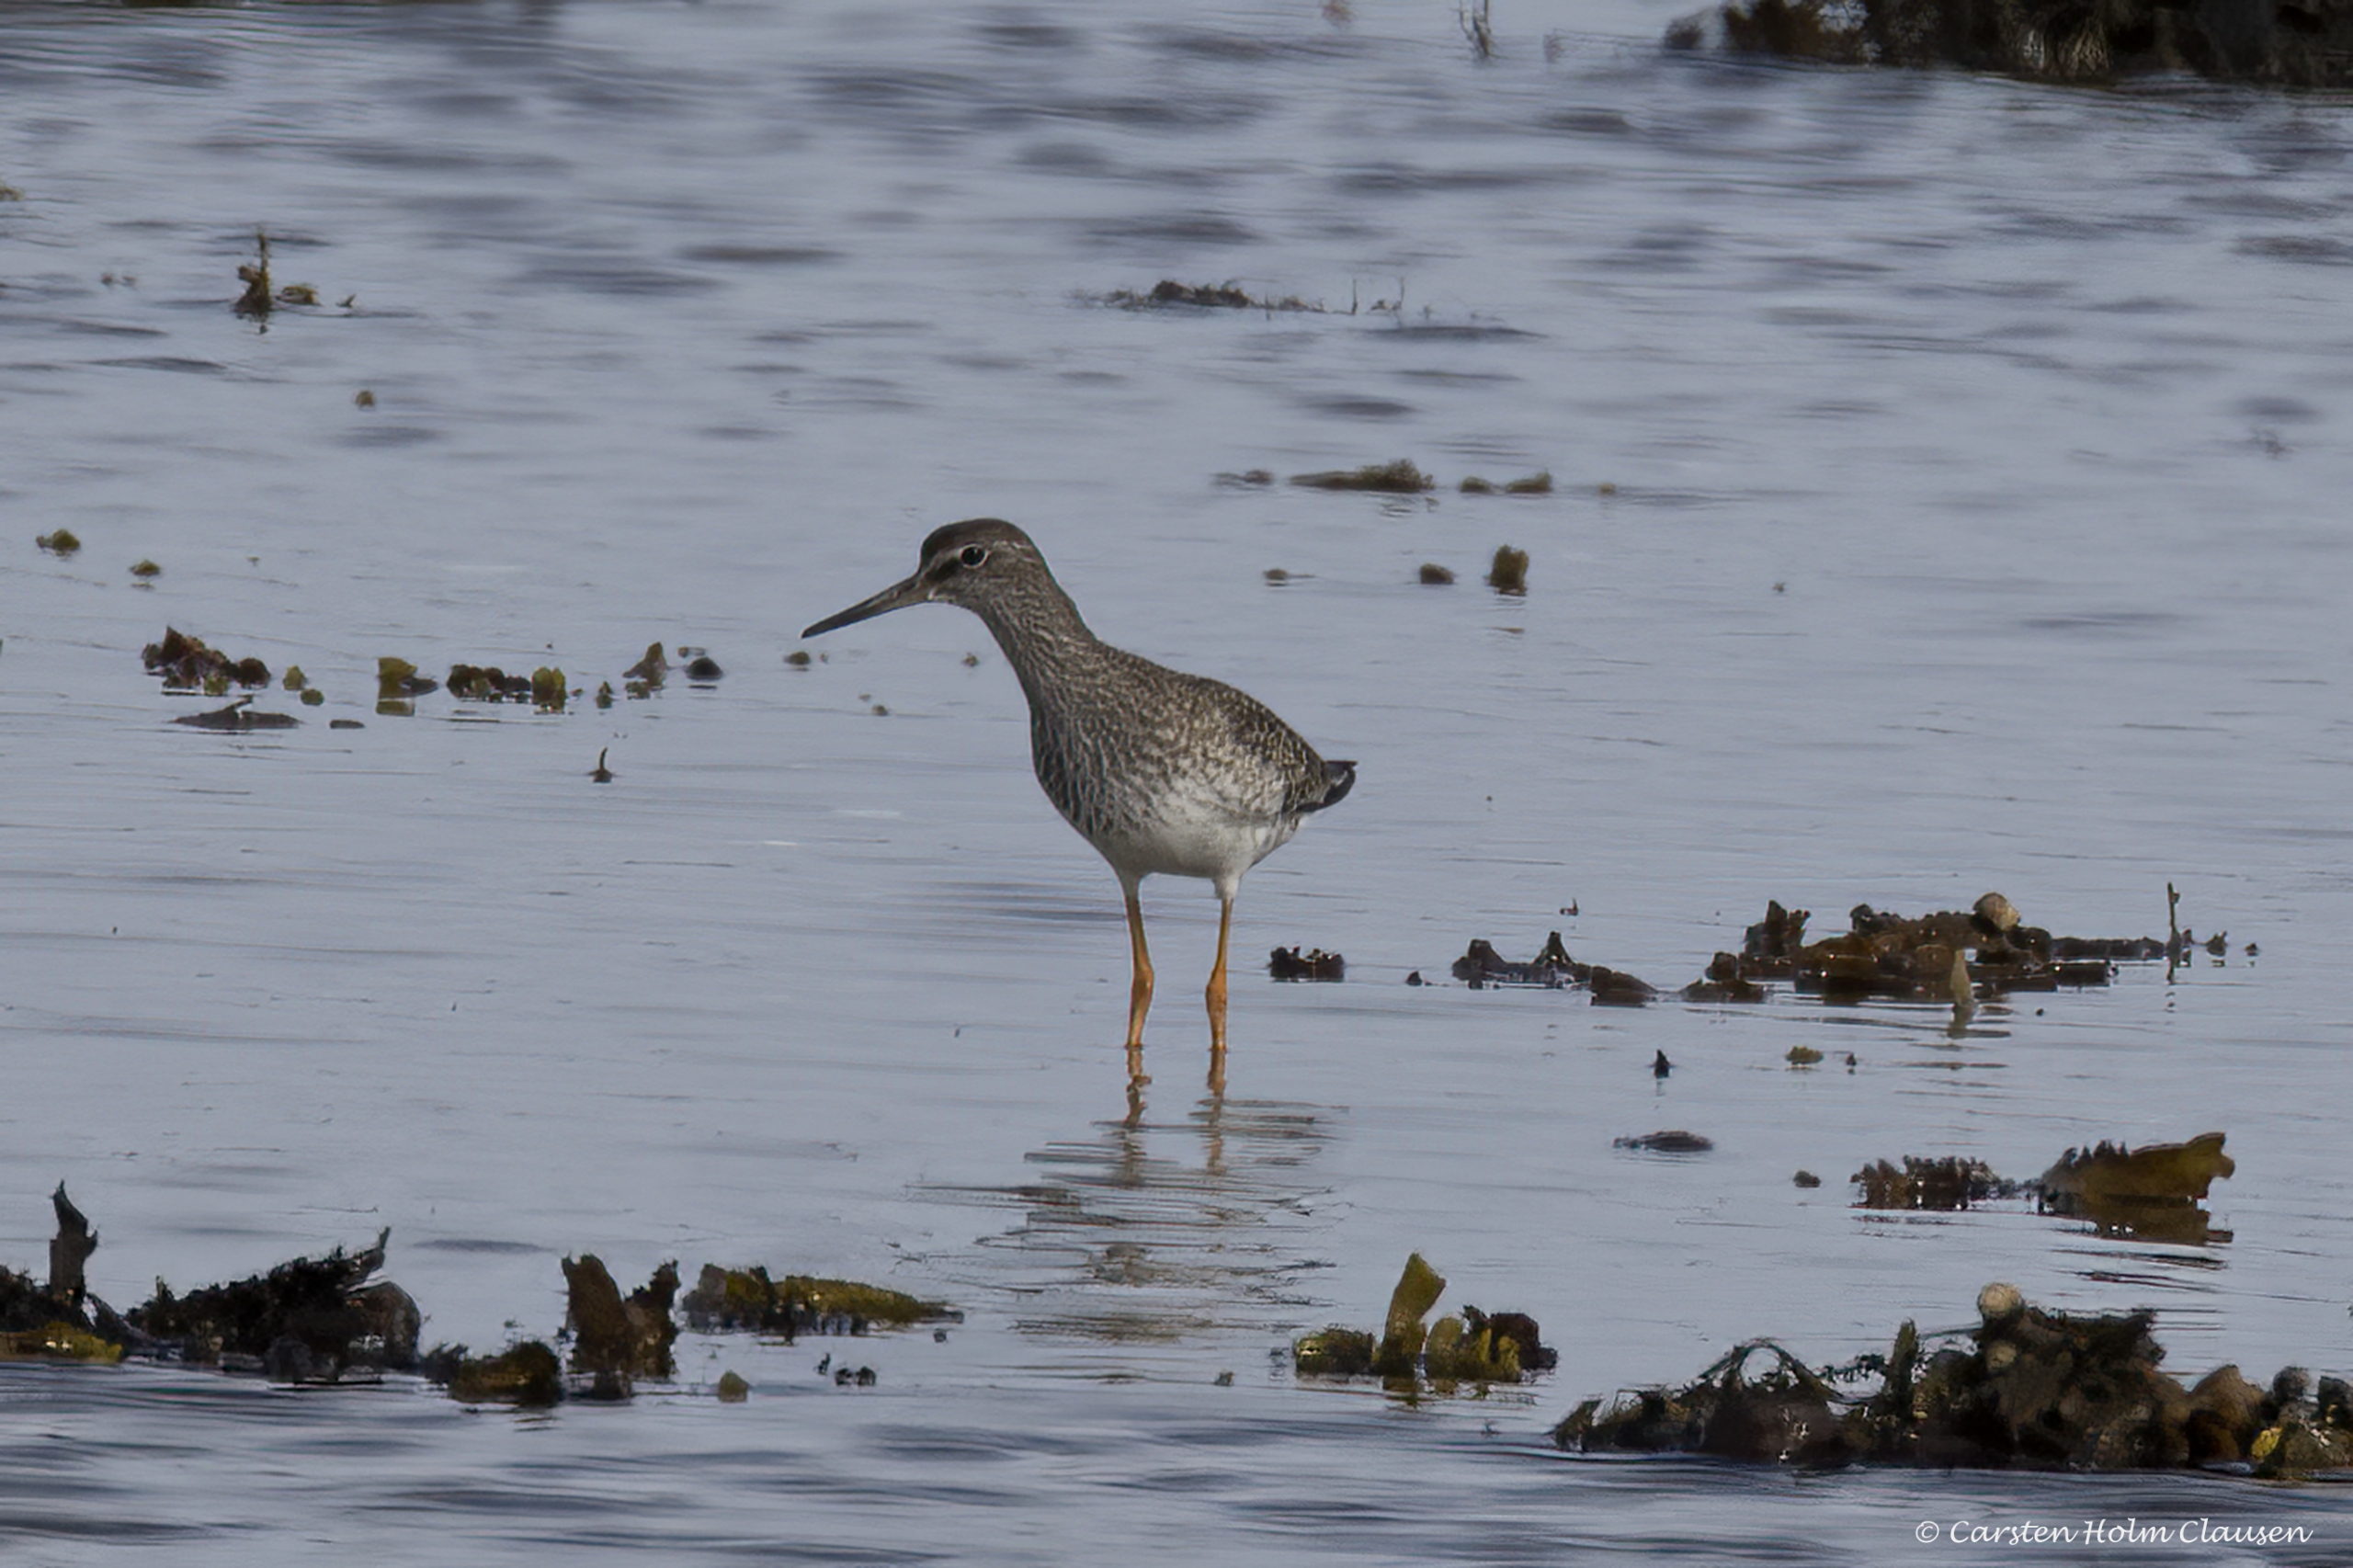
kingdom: Animalia
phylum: Chordata
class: Aves
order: Charadriiformes
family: Scolopacidae
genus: Tringa
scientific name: Tringa totanus
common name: Rødben
